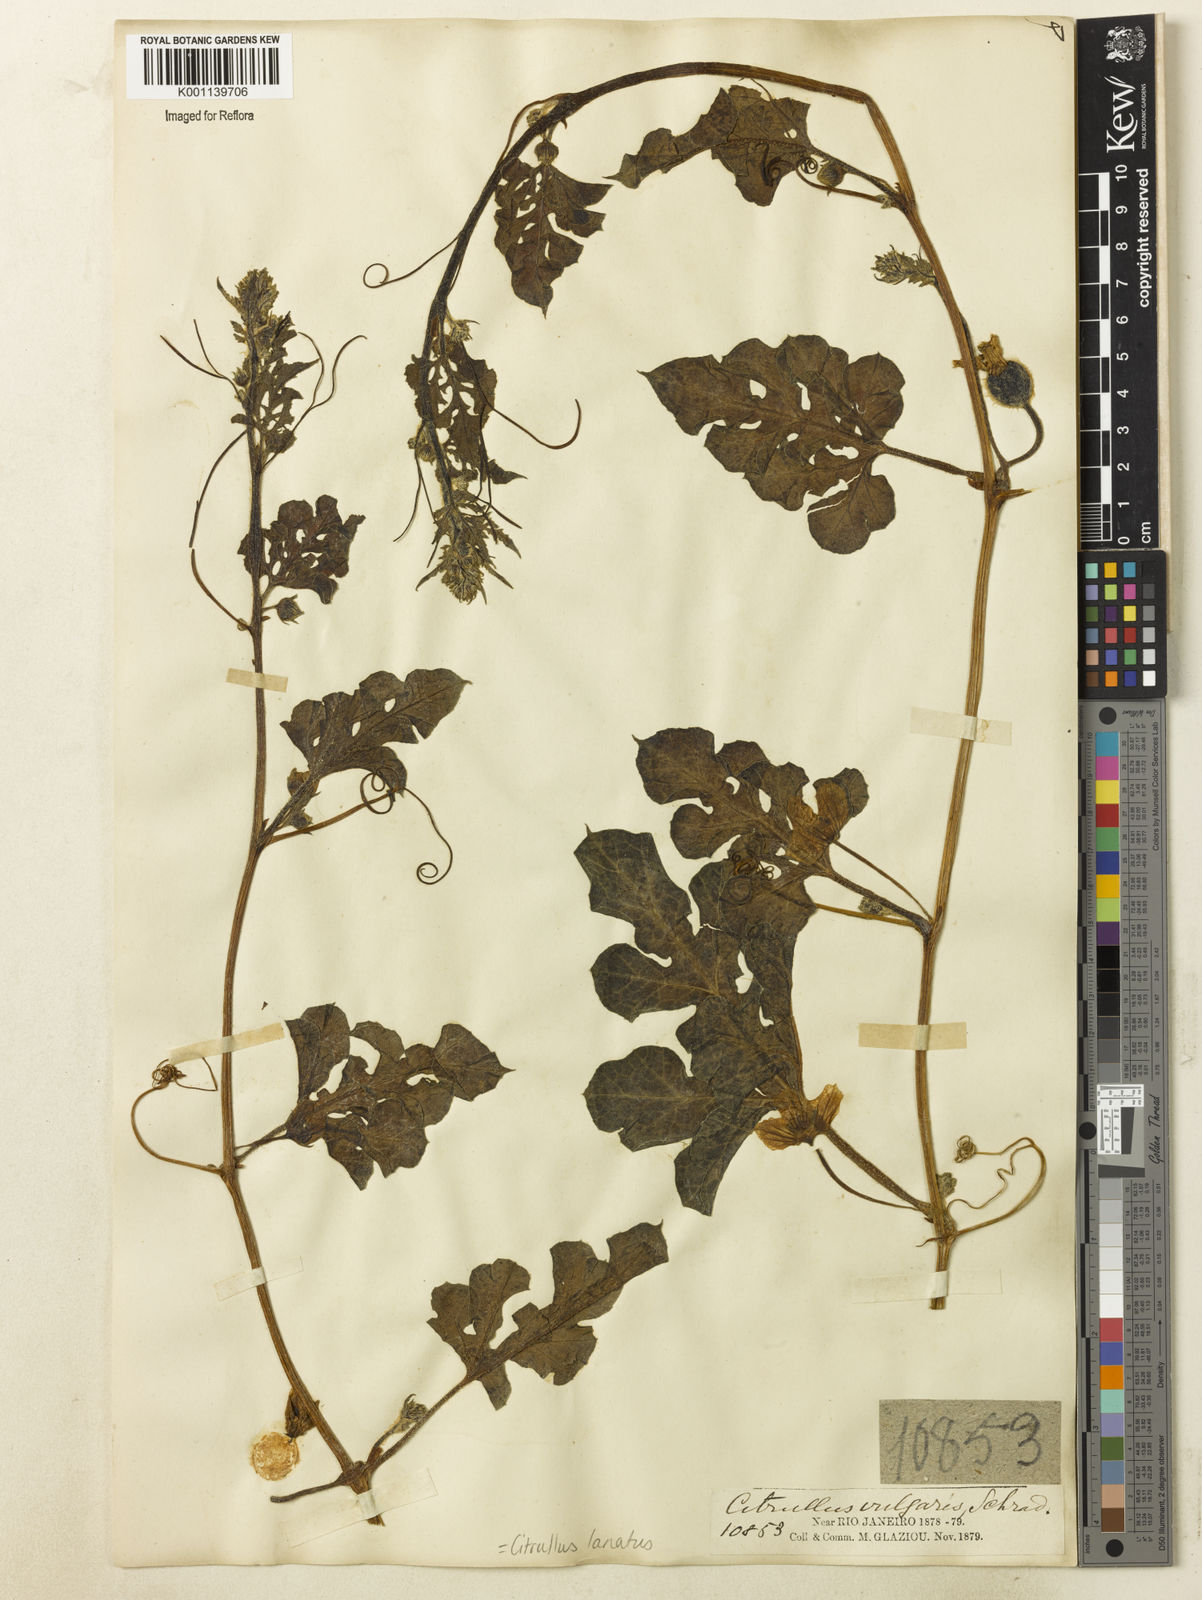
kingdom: Plantae
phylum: Tracheophyta
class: Magnoliopsida
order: Cucurbitales
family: Cucurbitaceae
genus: Citrullus
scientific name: Citrullus lanatus
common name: Watermelon
